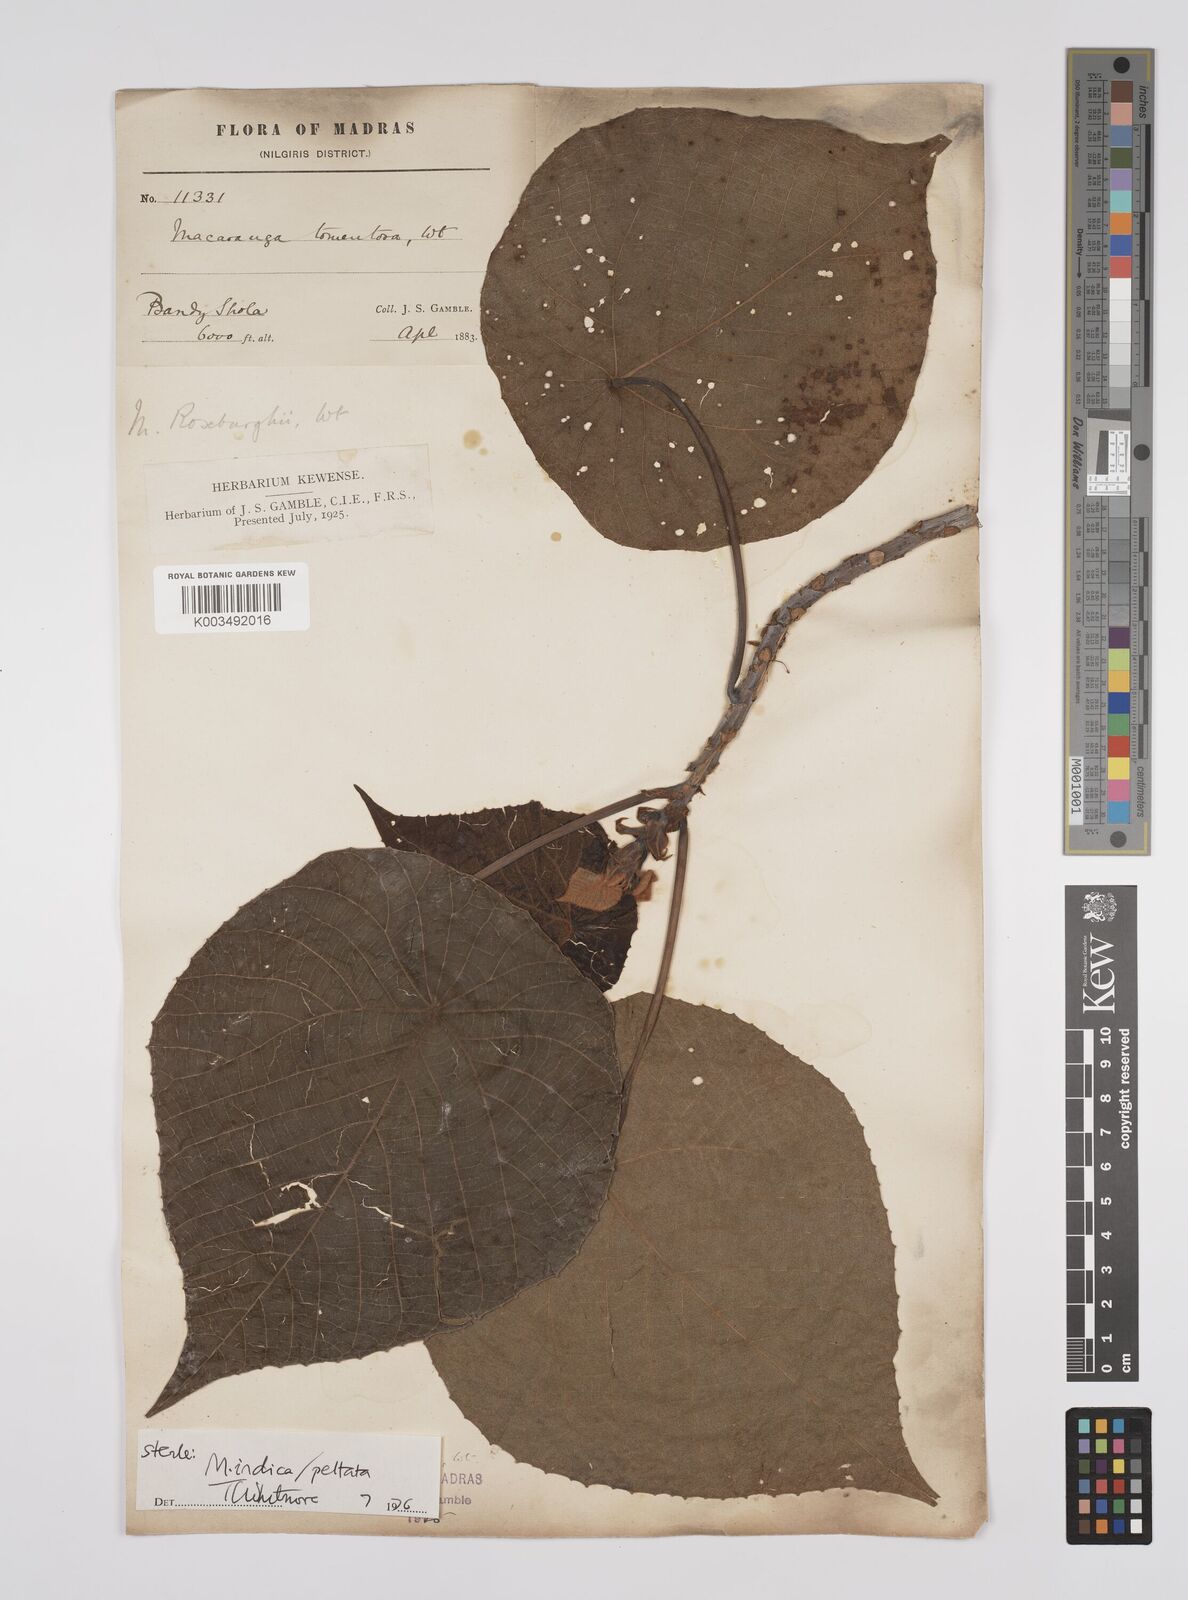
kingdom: Plantae
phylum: Tracheophyta
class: Magnoliopsida
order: Malpighiales
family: Euphorbiaceae
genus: Macaranga
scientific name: Macaranga indica
